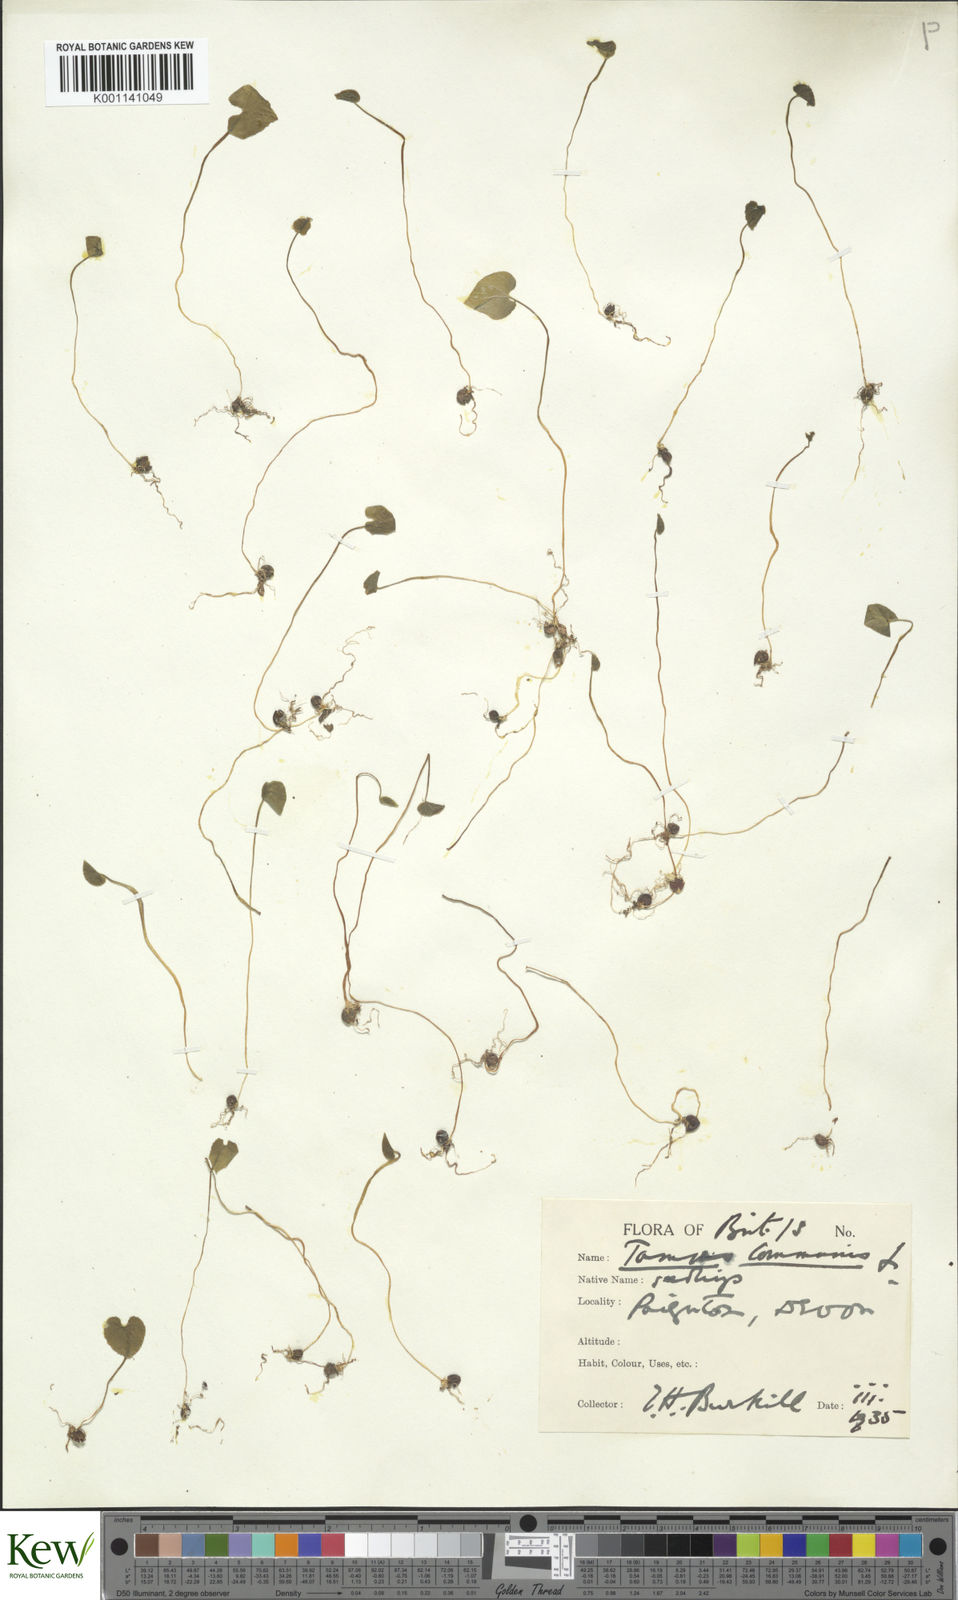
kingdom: Plantae
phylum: Tracheophyta
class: Liliopsida
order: Dioscoreales
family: Dioscoreaceae
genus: Dioscorea
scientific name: Dioscorea communis
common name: Black-bindweed
